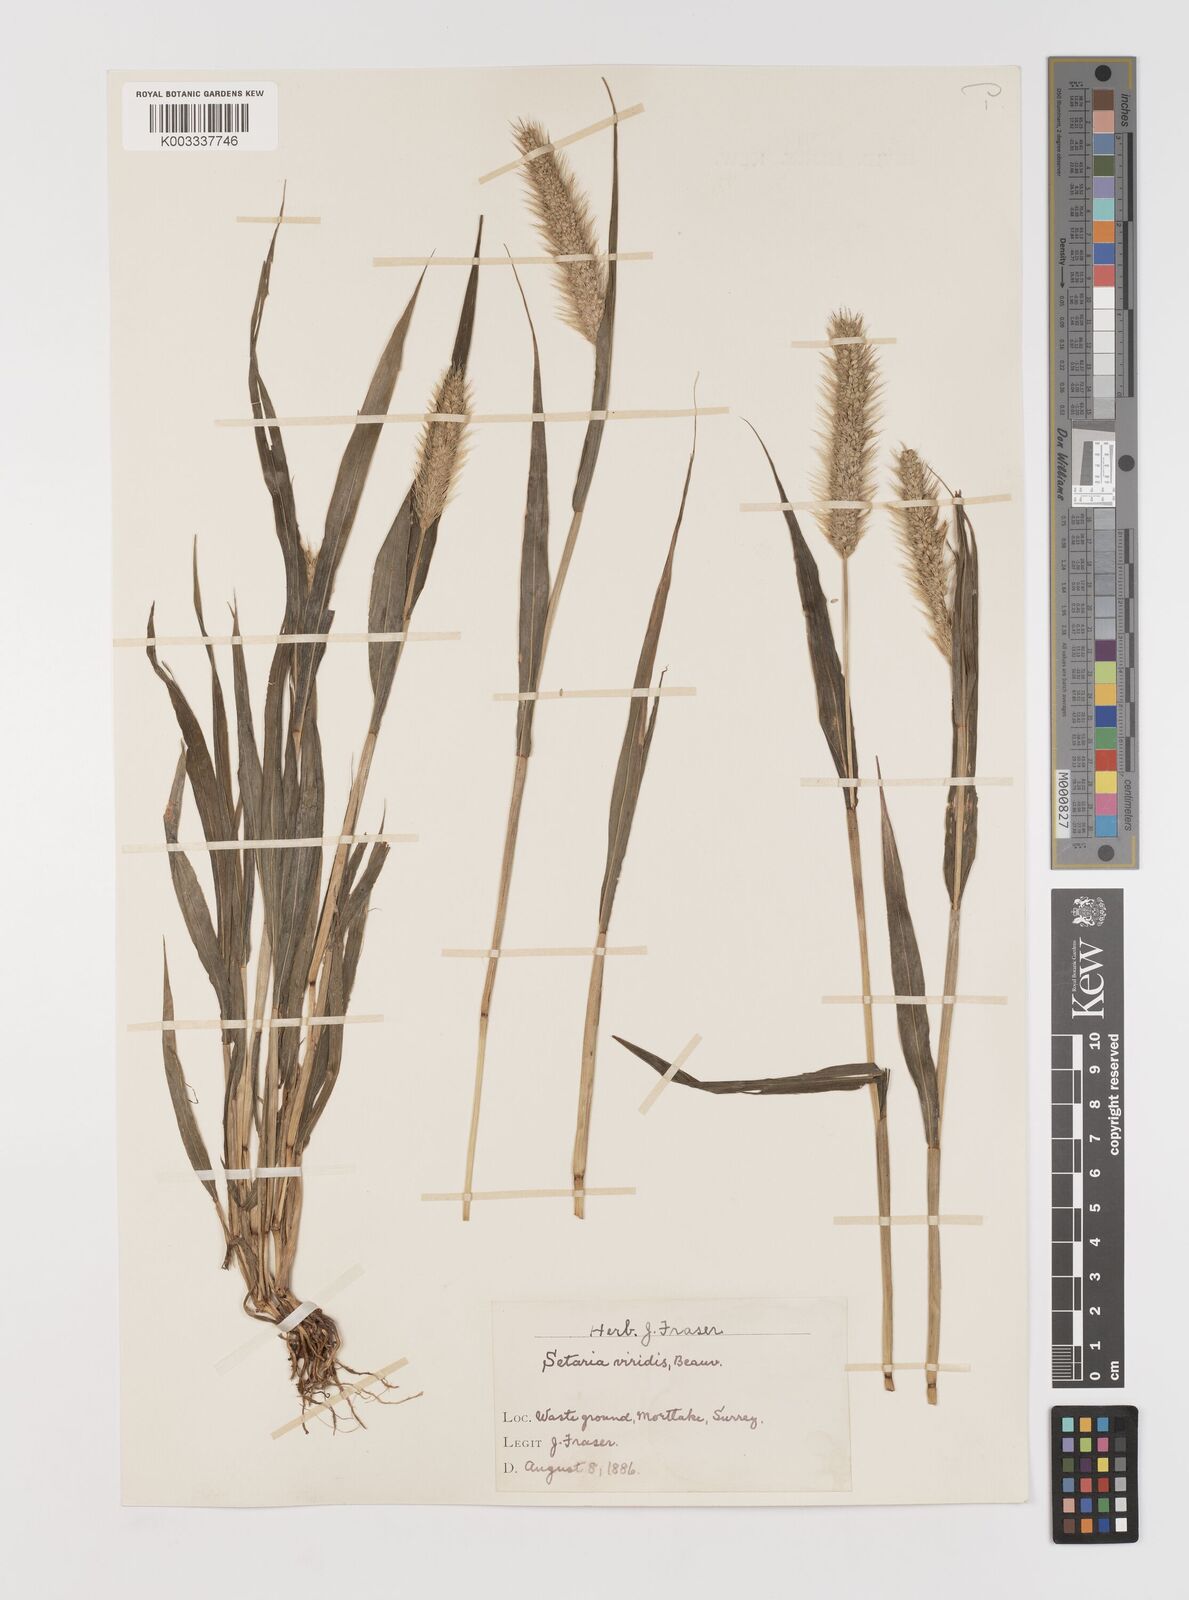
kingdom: Plantae
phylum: Tracheophyta
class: Liliopsida
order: Poales
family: Poaceae
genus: Setaria
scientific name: Setaria viridis
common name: Green bristlegrass
